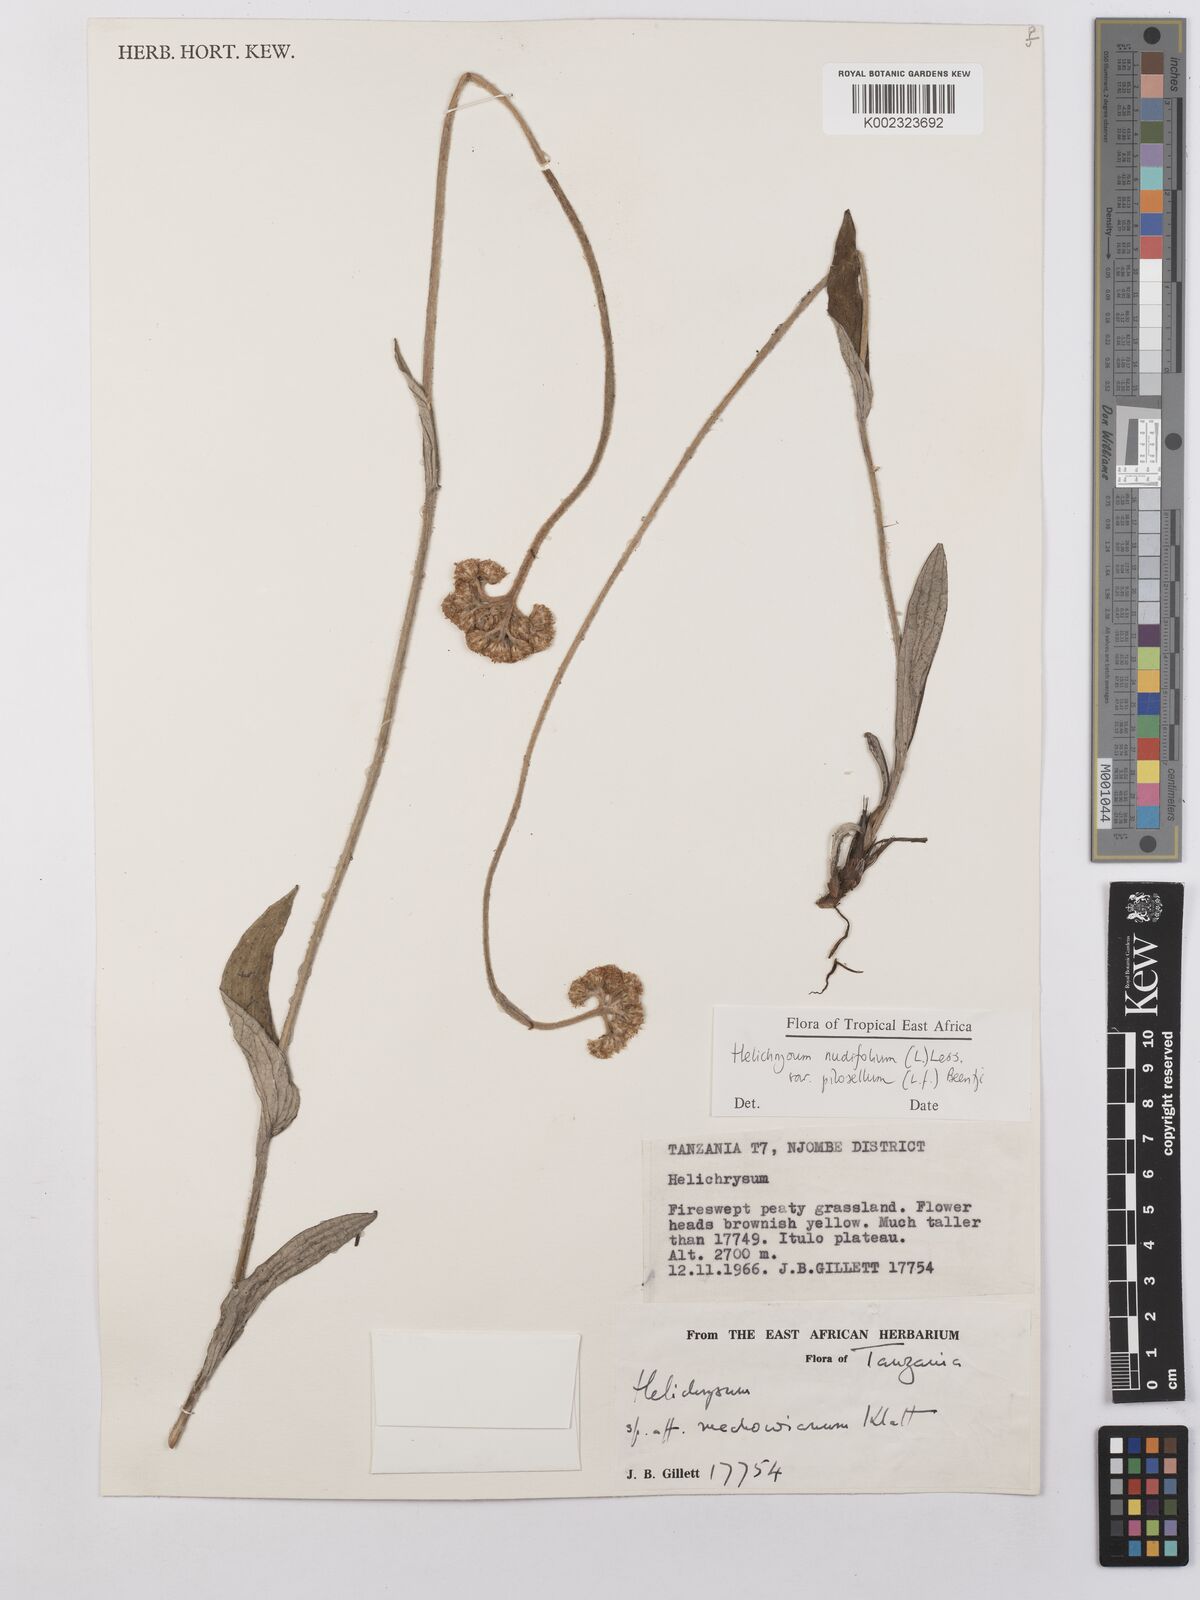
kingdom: Plantae
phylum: Tracheophyta
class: Magnoliopsida
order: Asterales
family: Asteraceae
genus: Helichrysum
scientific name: Helichrysum nudifolium
